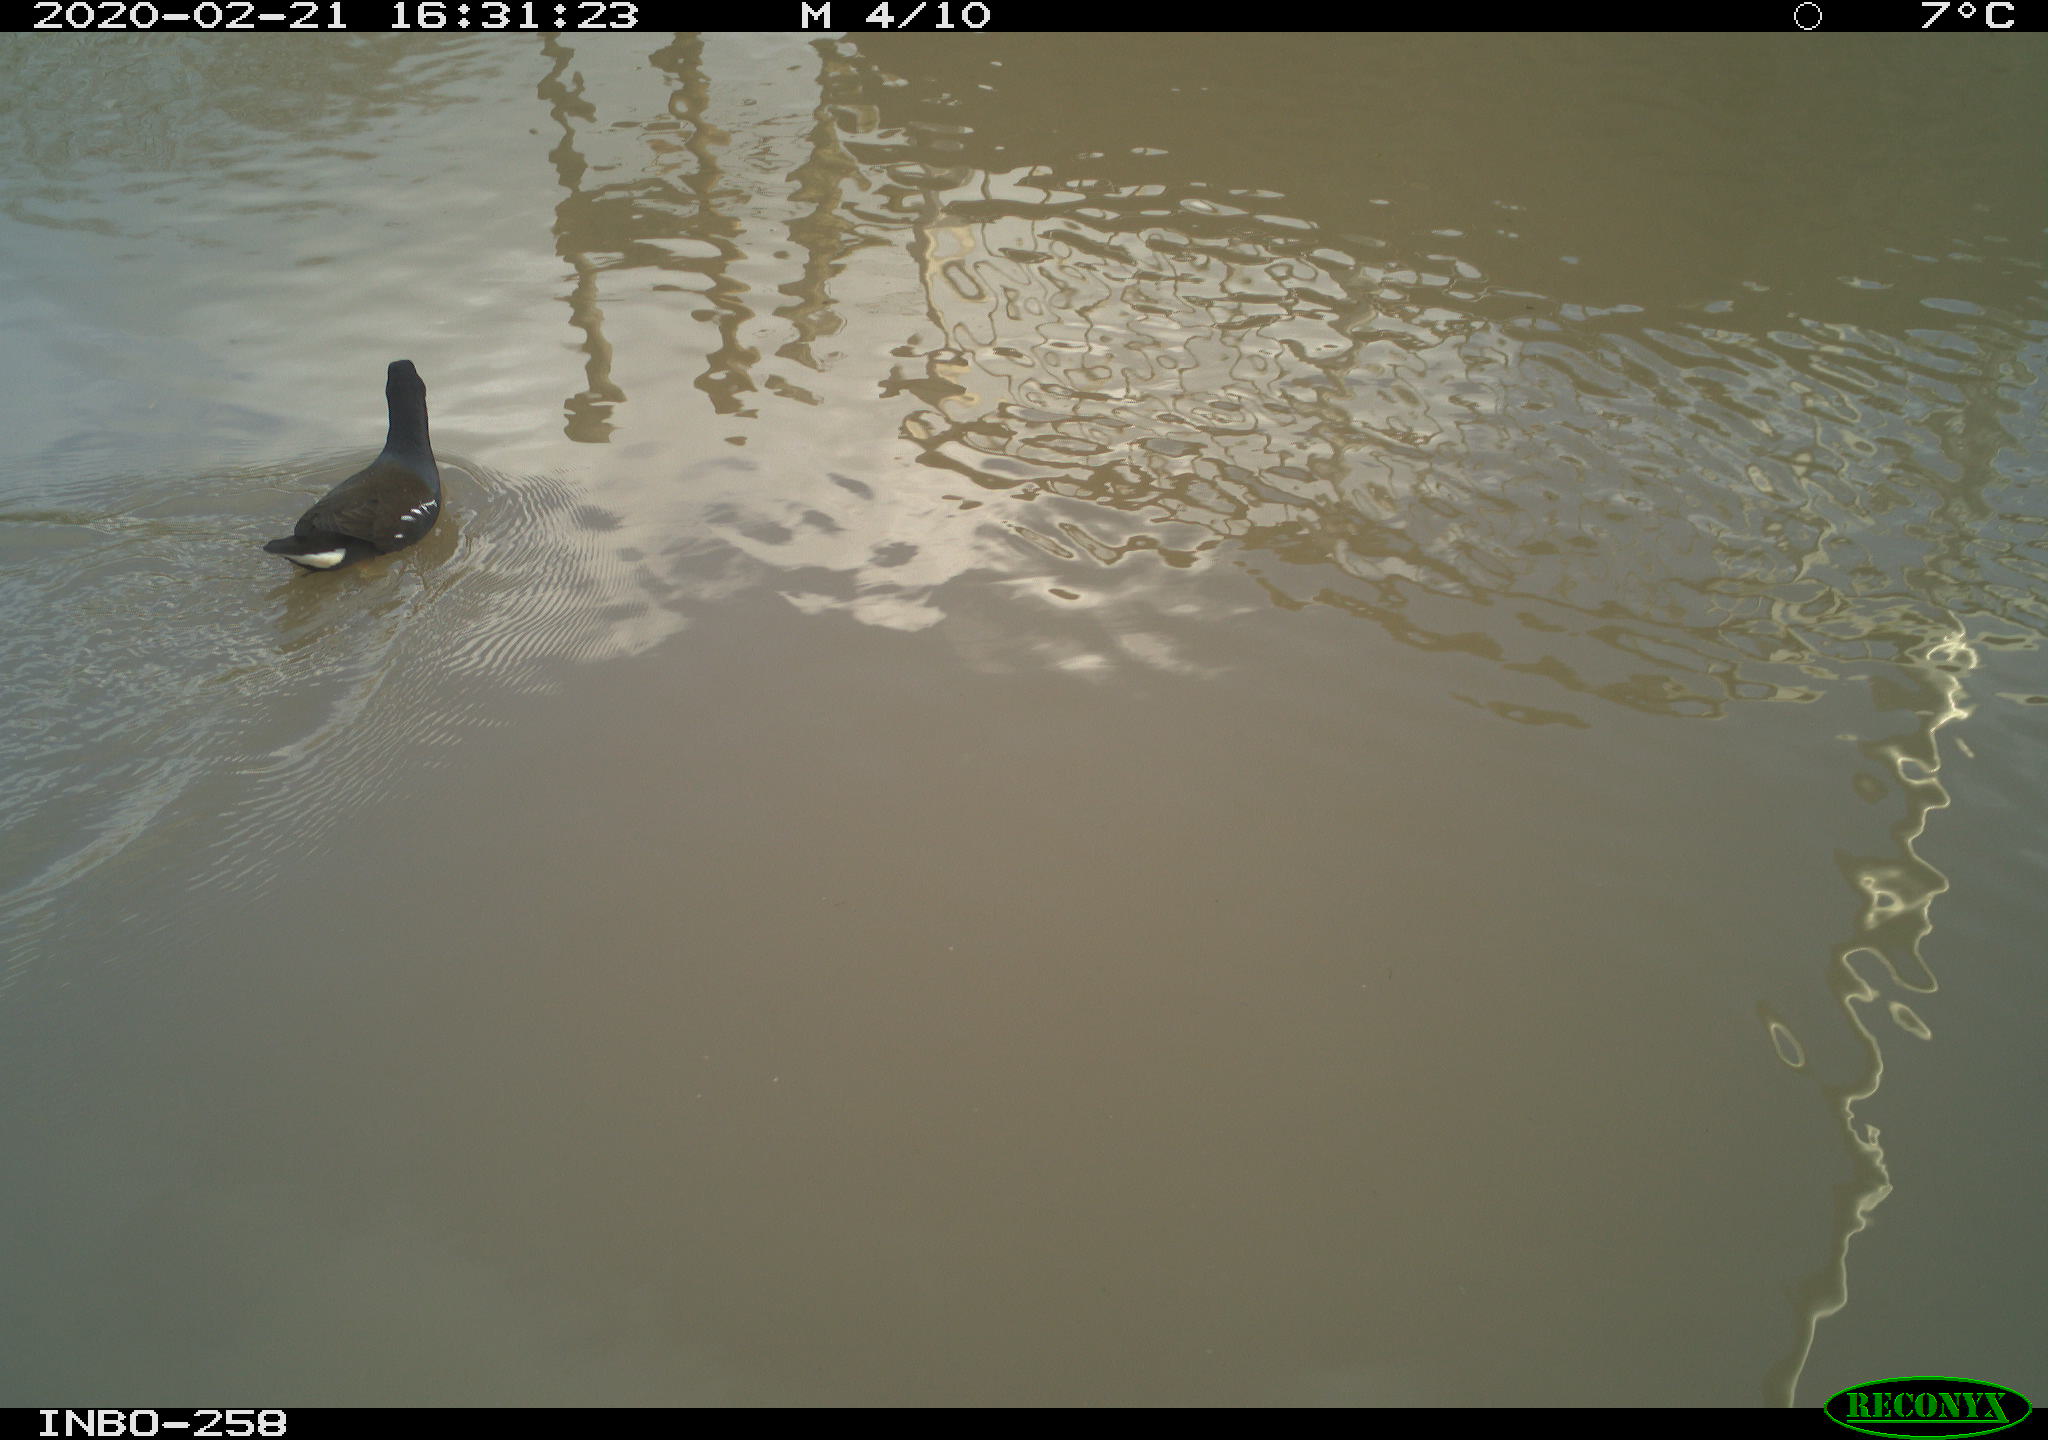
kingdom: Animalia
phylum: Chordata
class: Aves
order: Gruiformes
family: Rallidae
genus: Gallinula
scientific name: Gallinula chloropus
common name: Common moorhen
